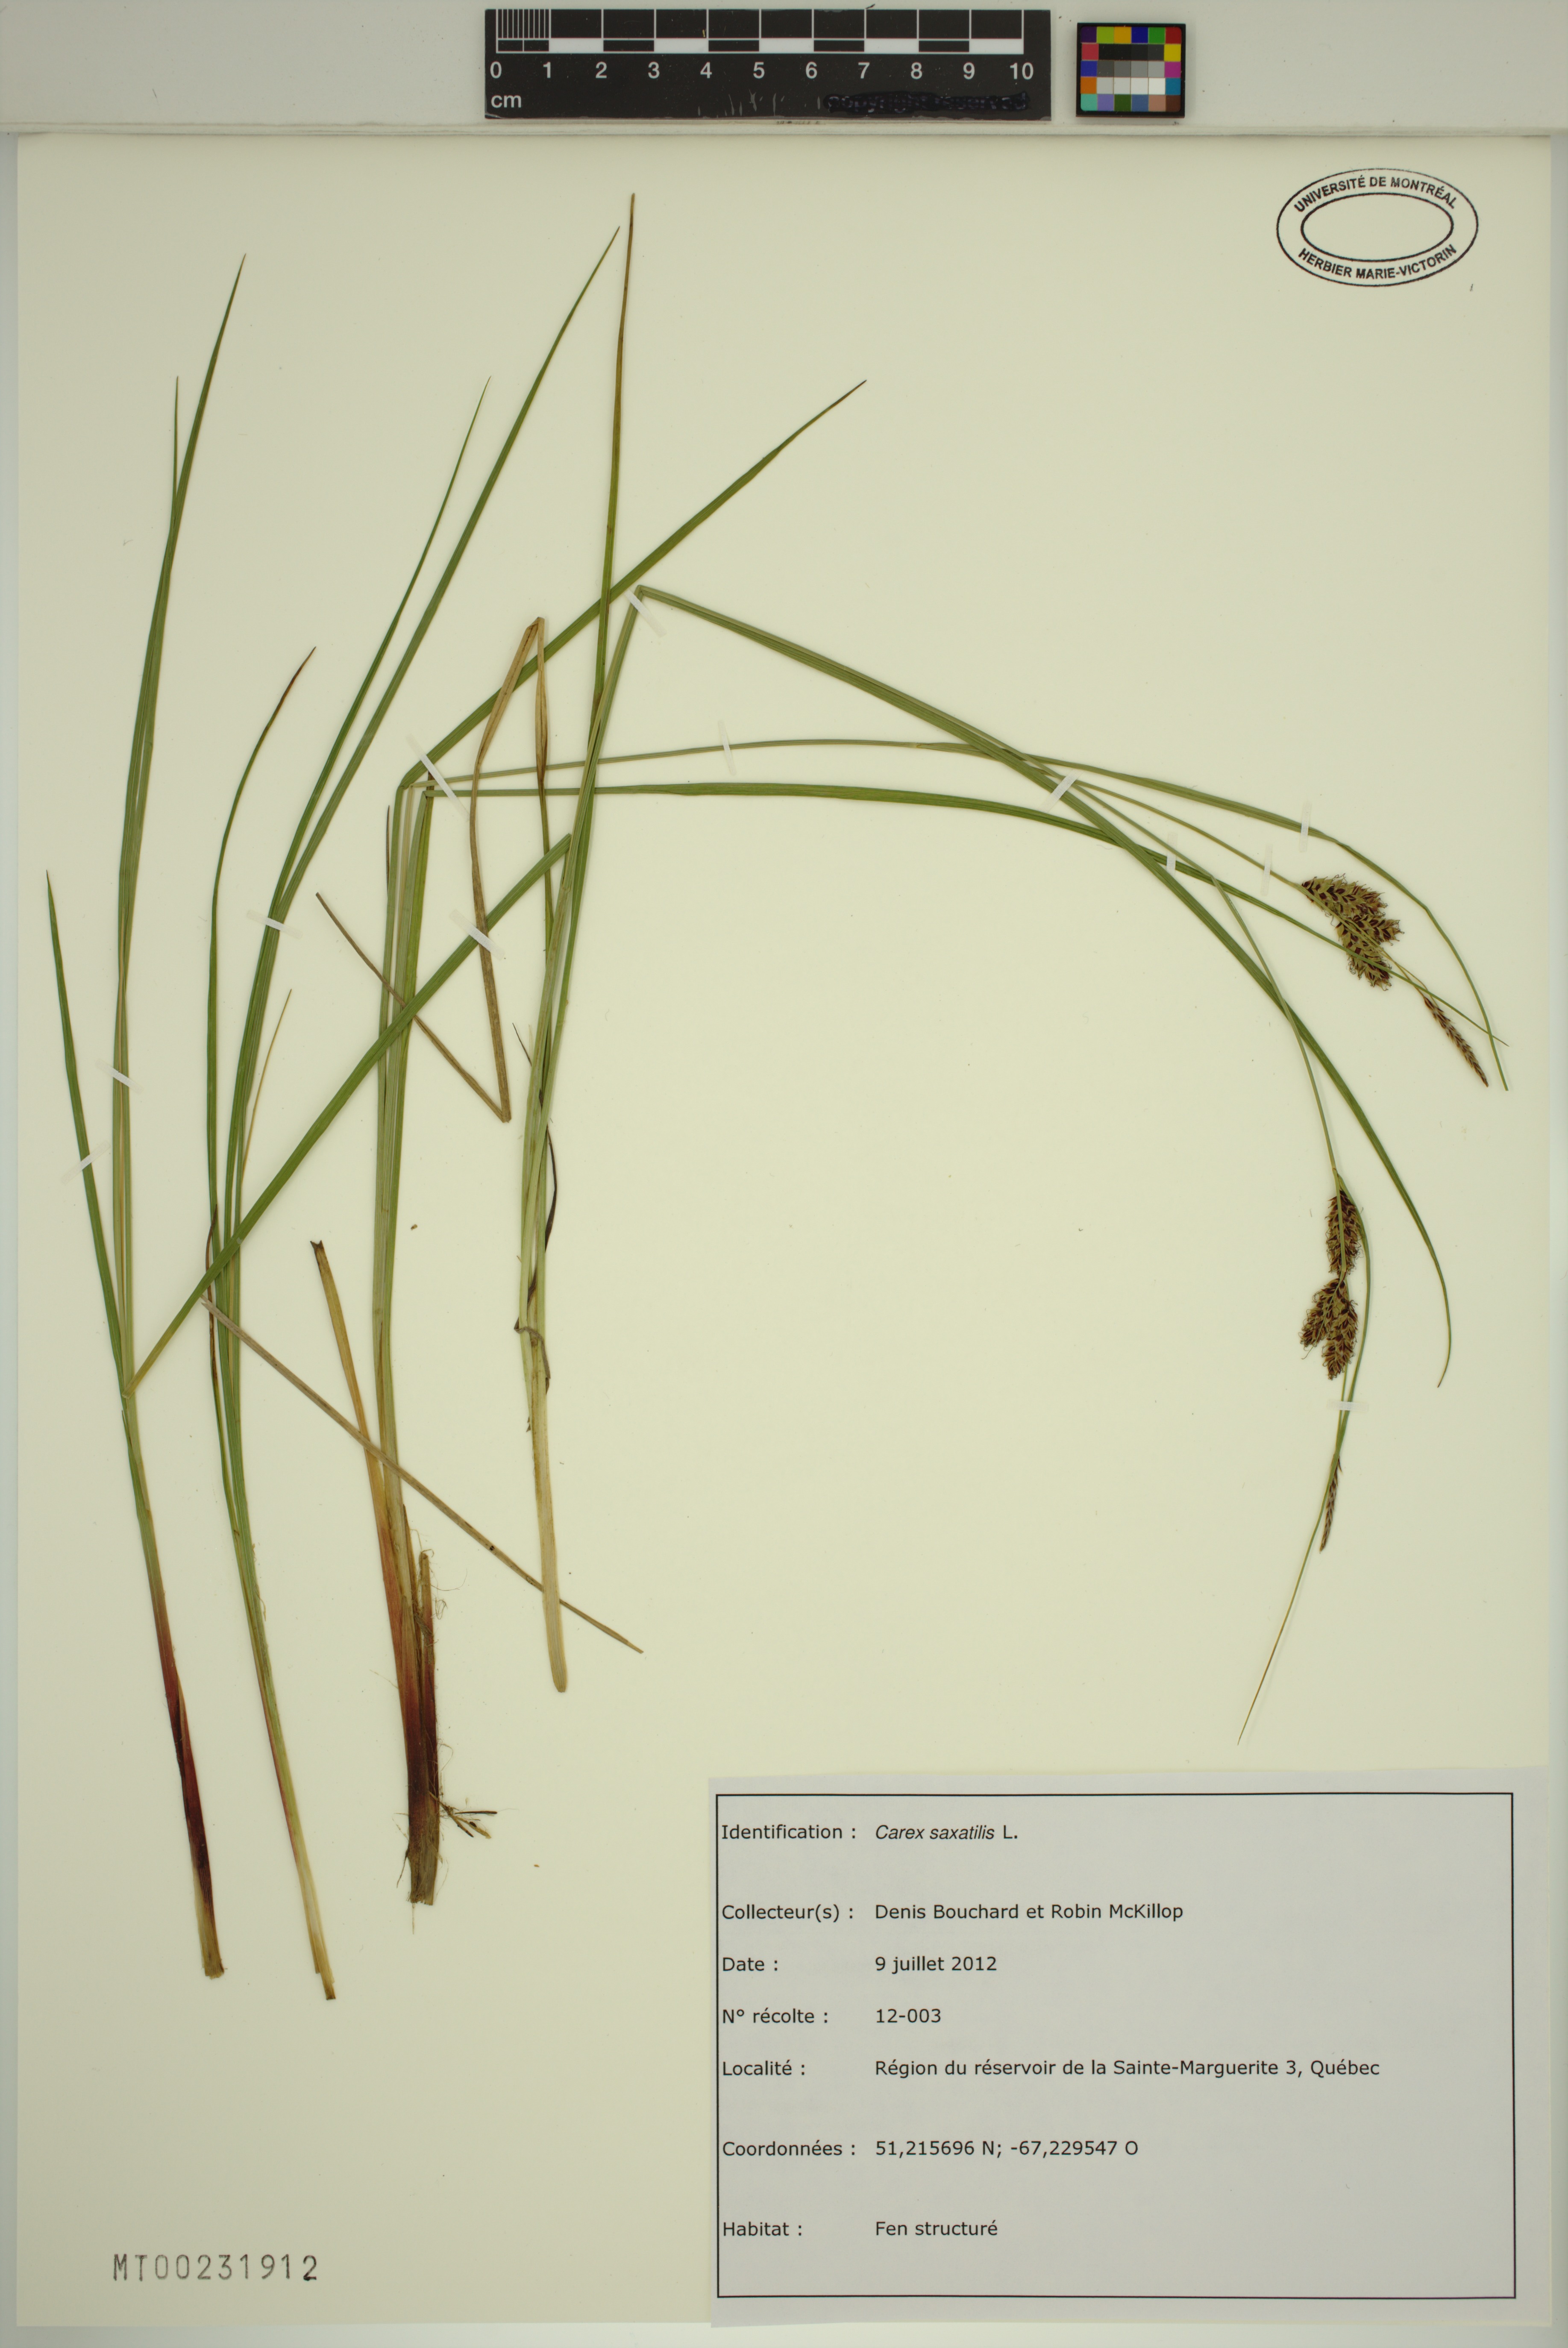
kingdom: Plantae
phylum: Tracheophyta
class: Liliopsida
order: Poales
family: Cyperaceae
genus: Carex
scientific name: Carex saxatilis
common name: Russet sedge
